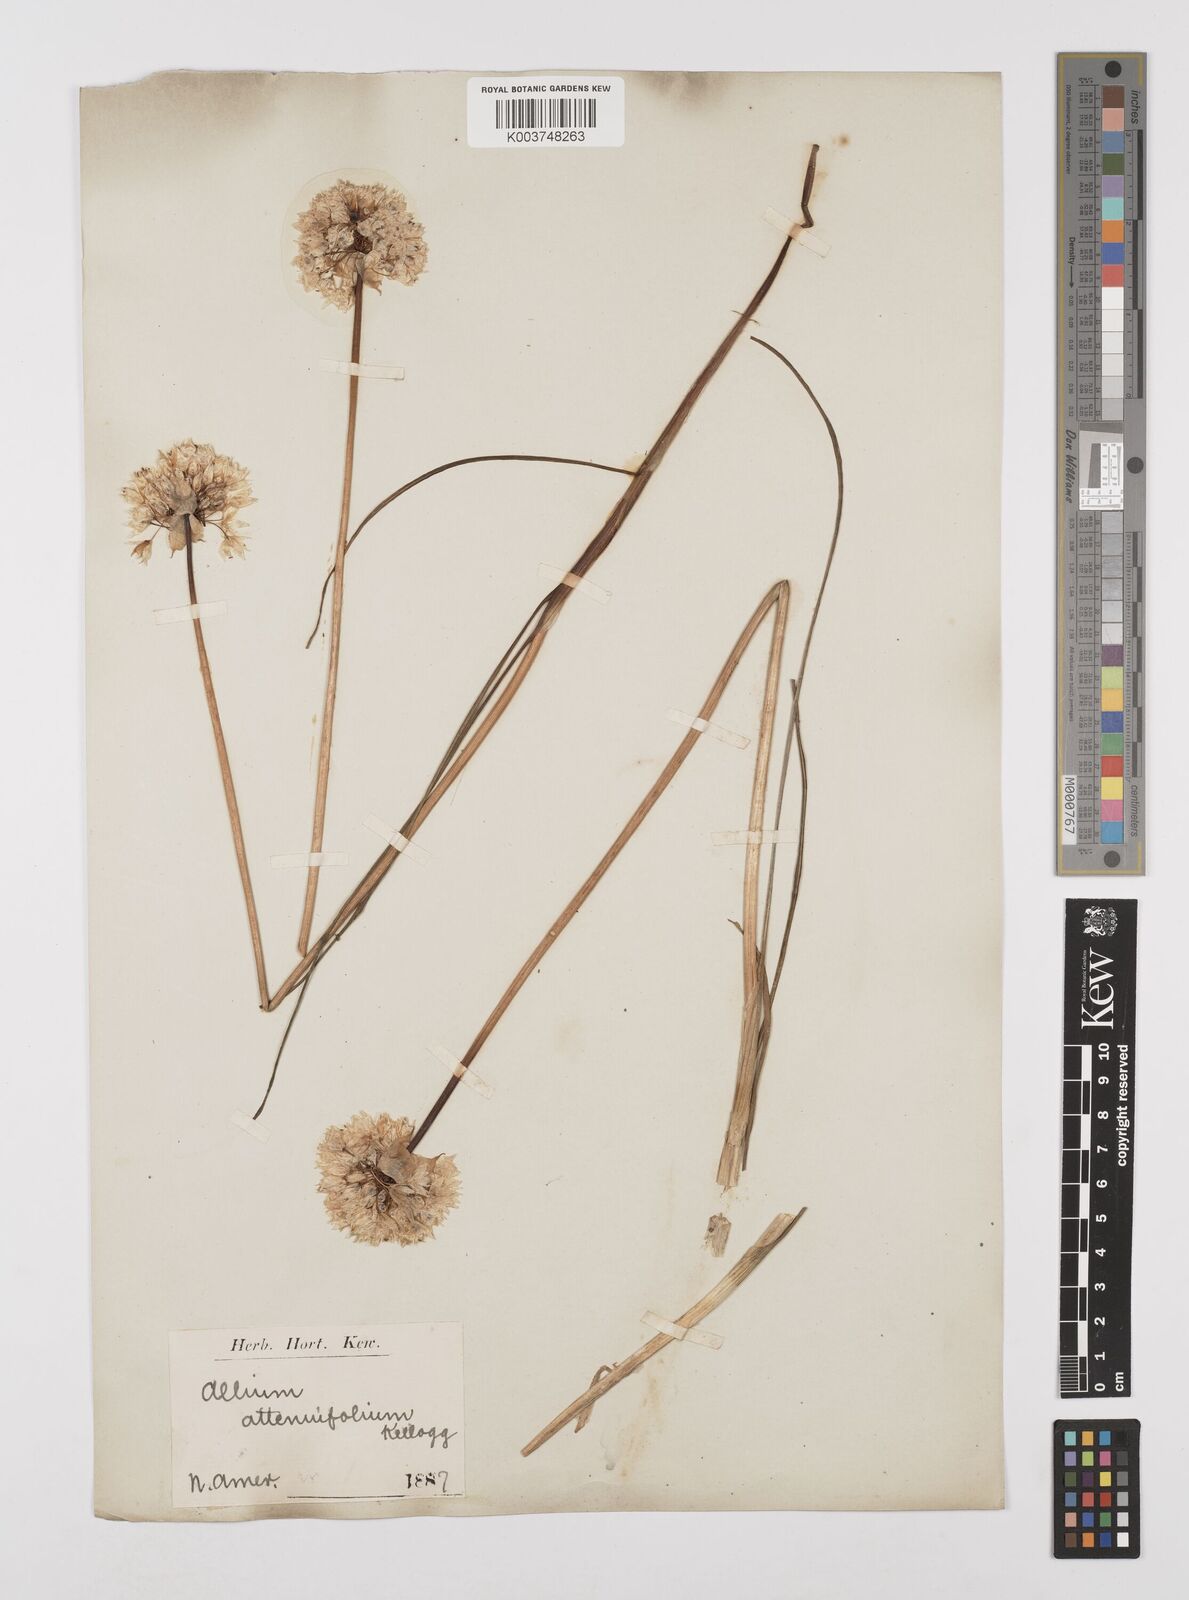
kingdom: Plantae
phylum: Tracheophyta
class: Liliopsida
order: Asparagales
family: Amaryllidaceae
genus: Allium
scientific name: Allium amplectens
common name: Narrow-leaved onion
